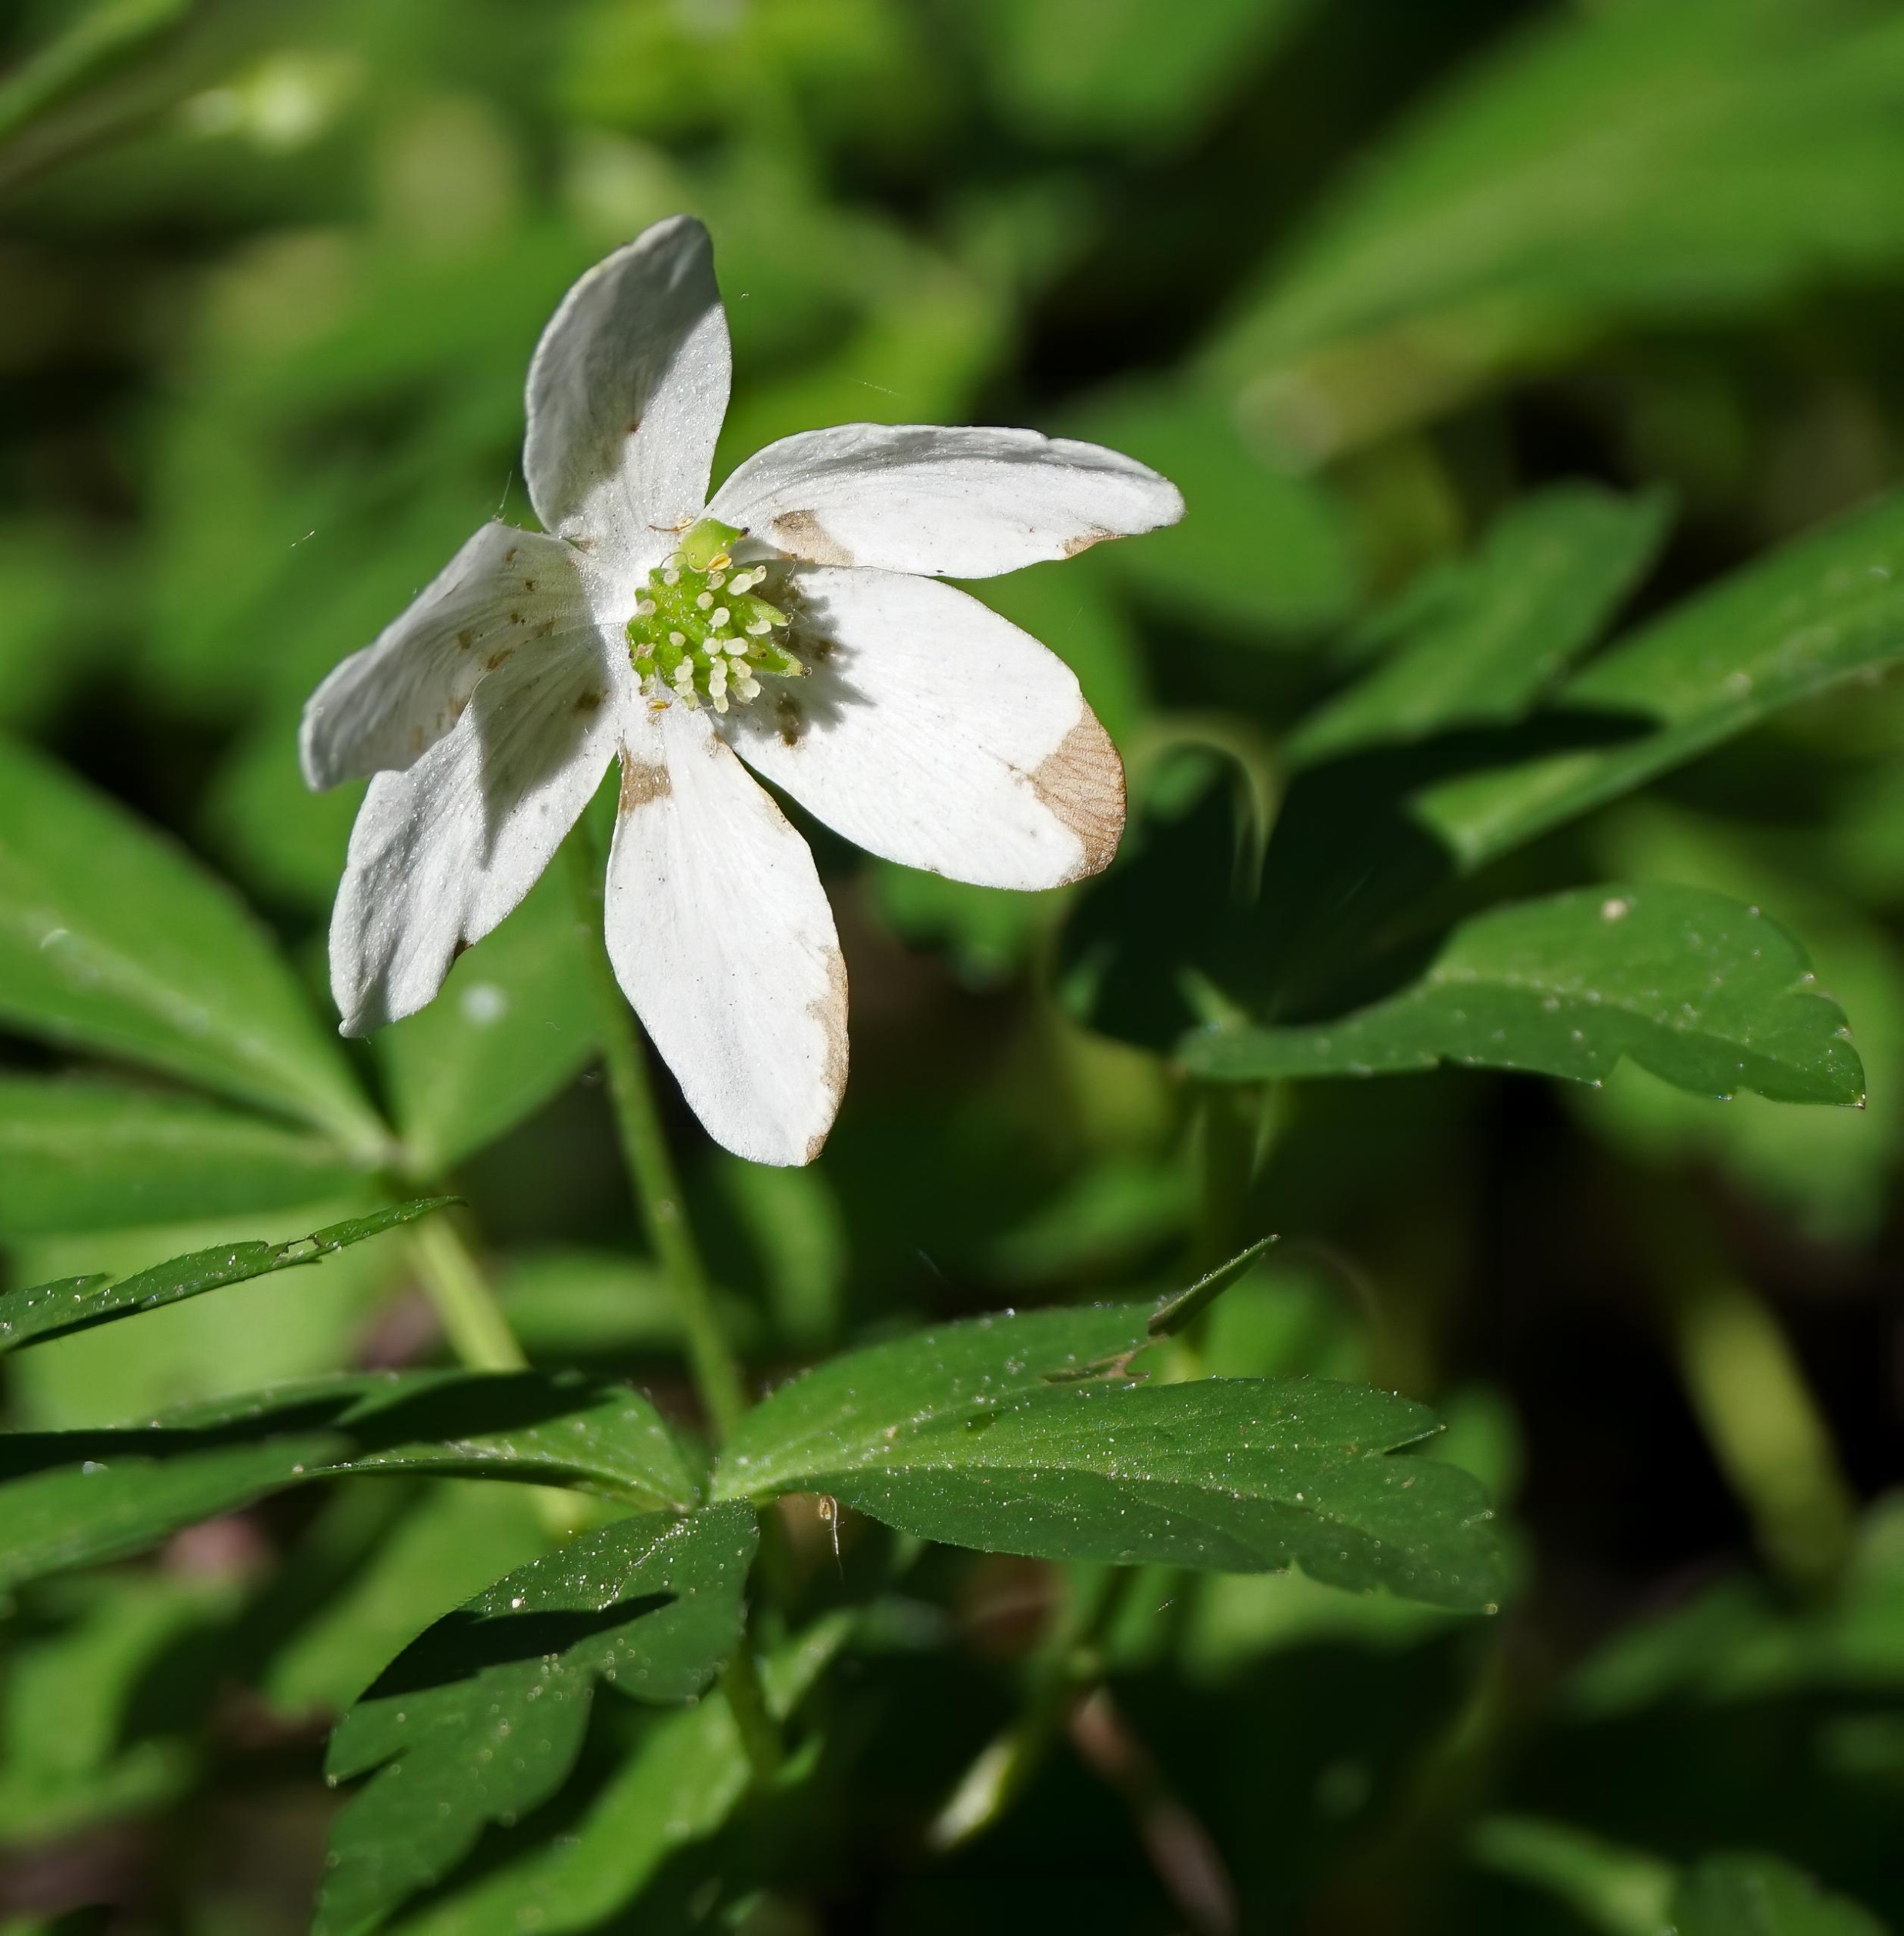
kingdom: Plantae
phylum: Tracheophyta
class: Magnoliopsida
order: Ranunculales
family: Ranunculaceae
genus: Anemone
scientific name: Anemone nemorosa
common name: Hvid anemone
